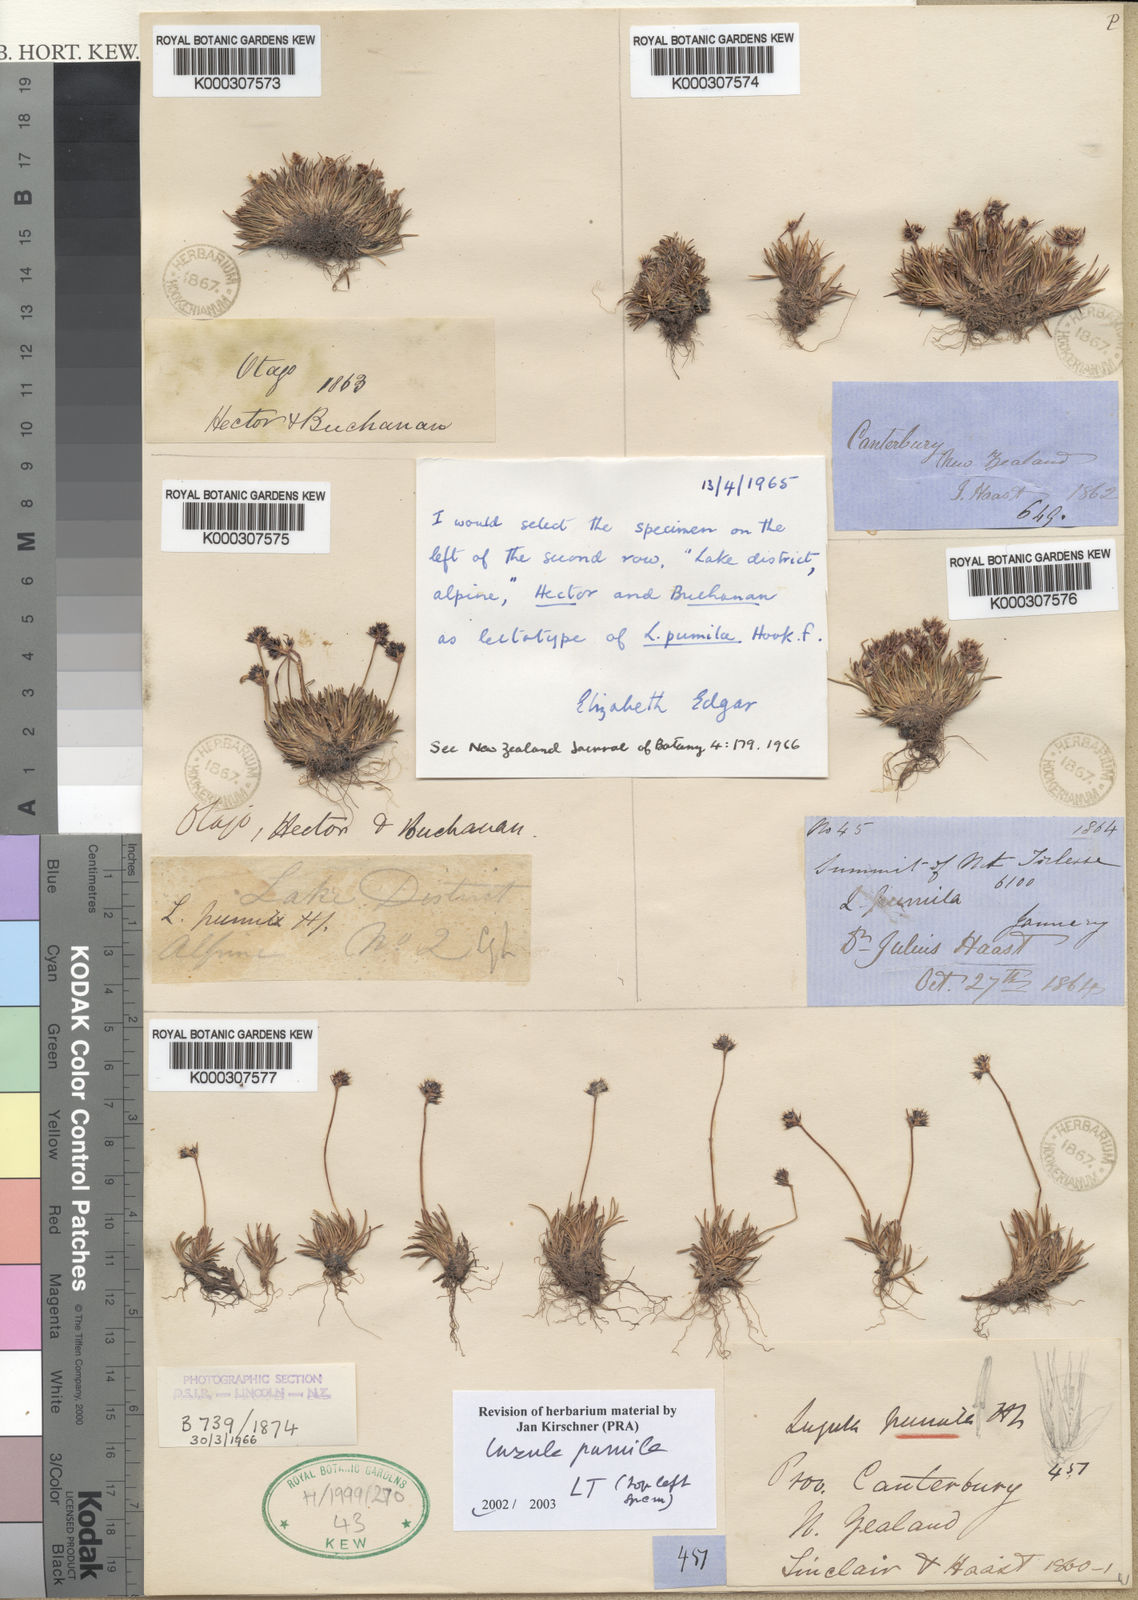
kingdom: Plantae
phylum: Tracheophyta
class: Liliopsida
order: Poales
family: Juncaceae
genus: Luzula
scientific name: Luzula pumila
